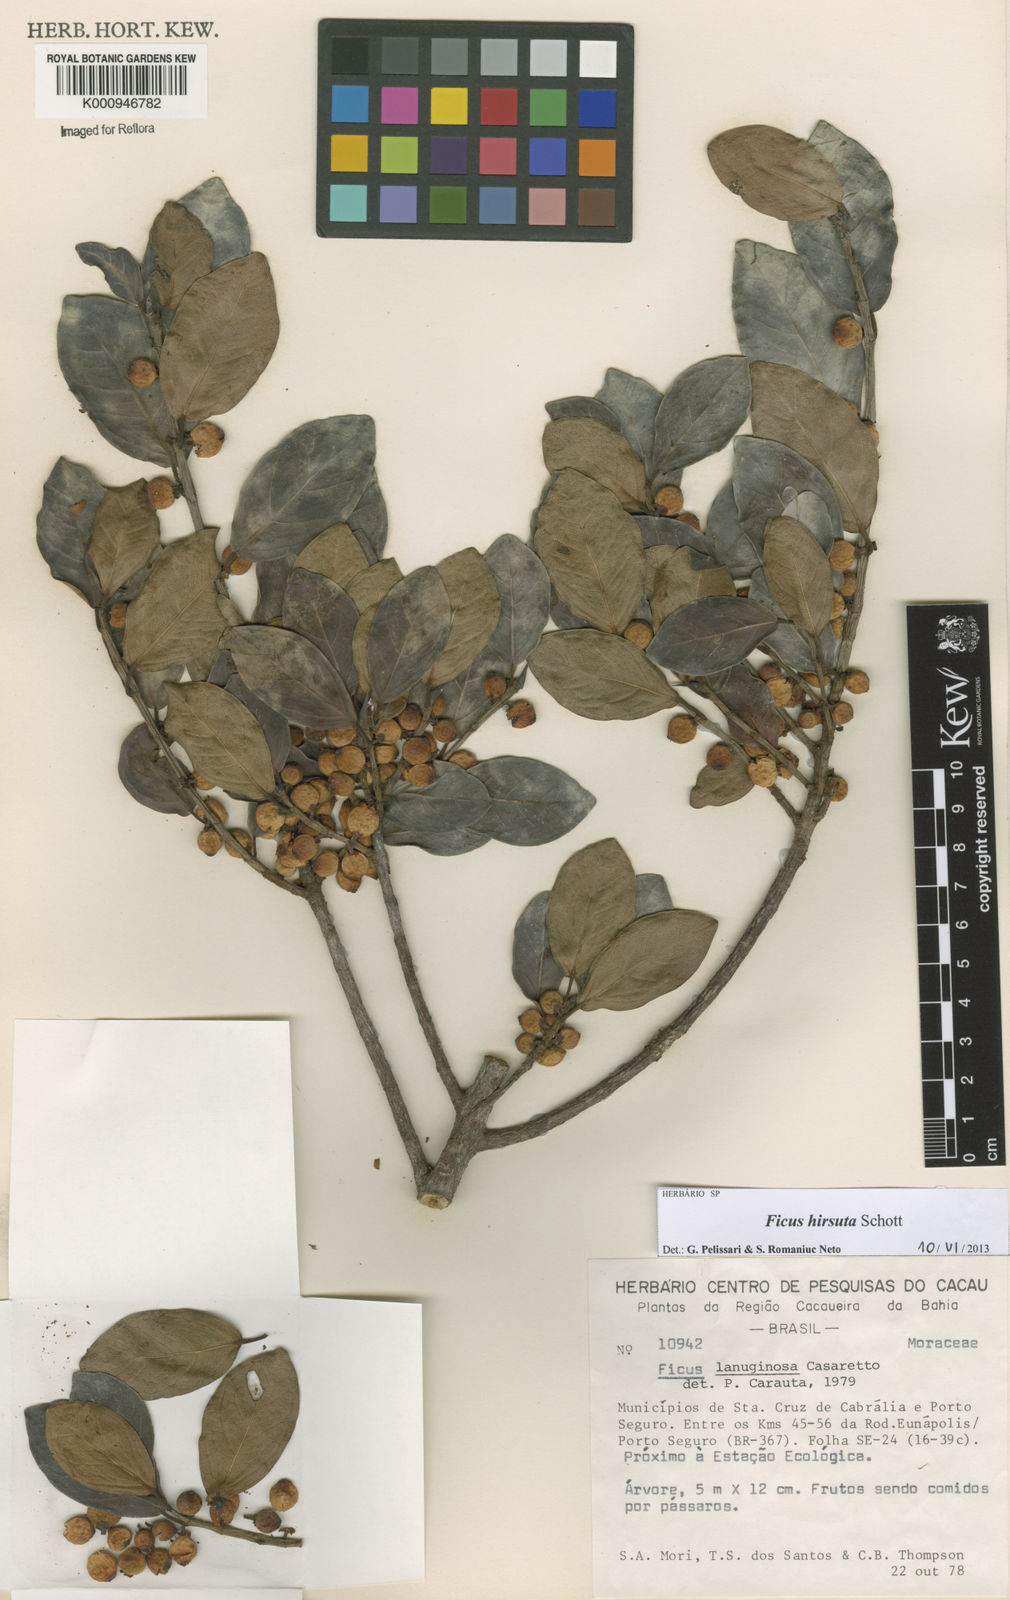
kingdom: Plantae
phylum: Tracheophyta
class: Magnoliopsida
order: Rosales
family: Moraceae
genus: Ficus
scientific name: Ficus hirsuta
